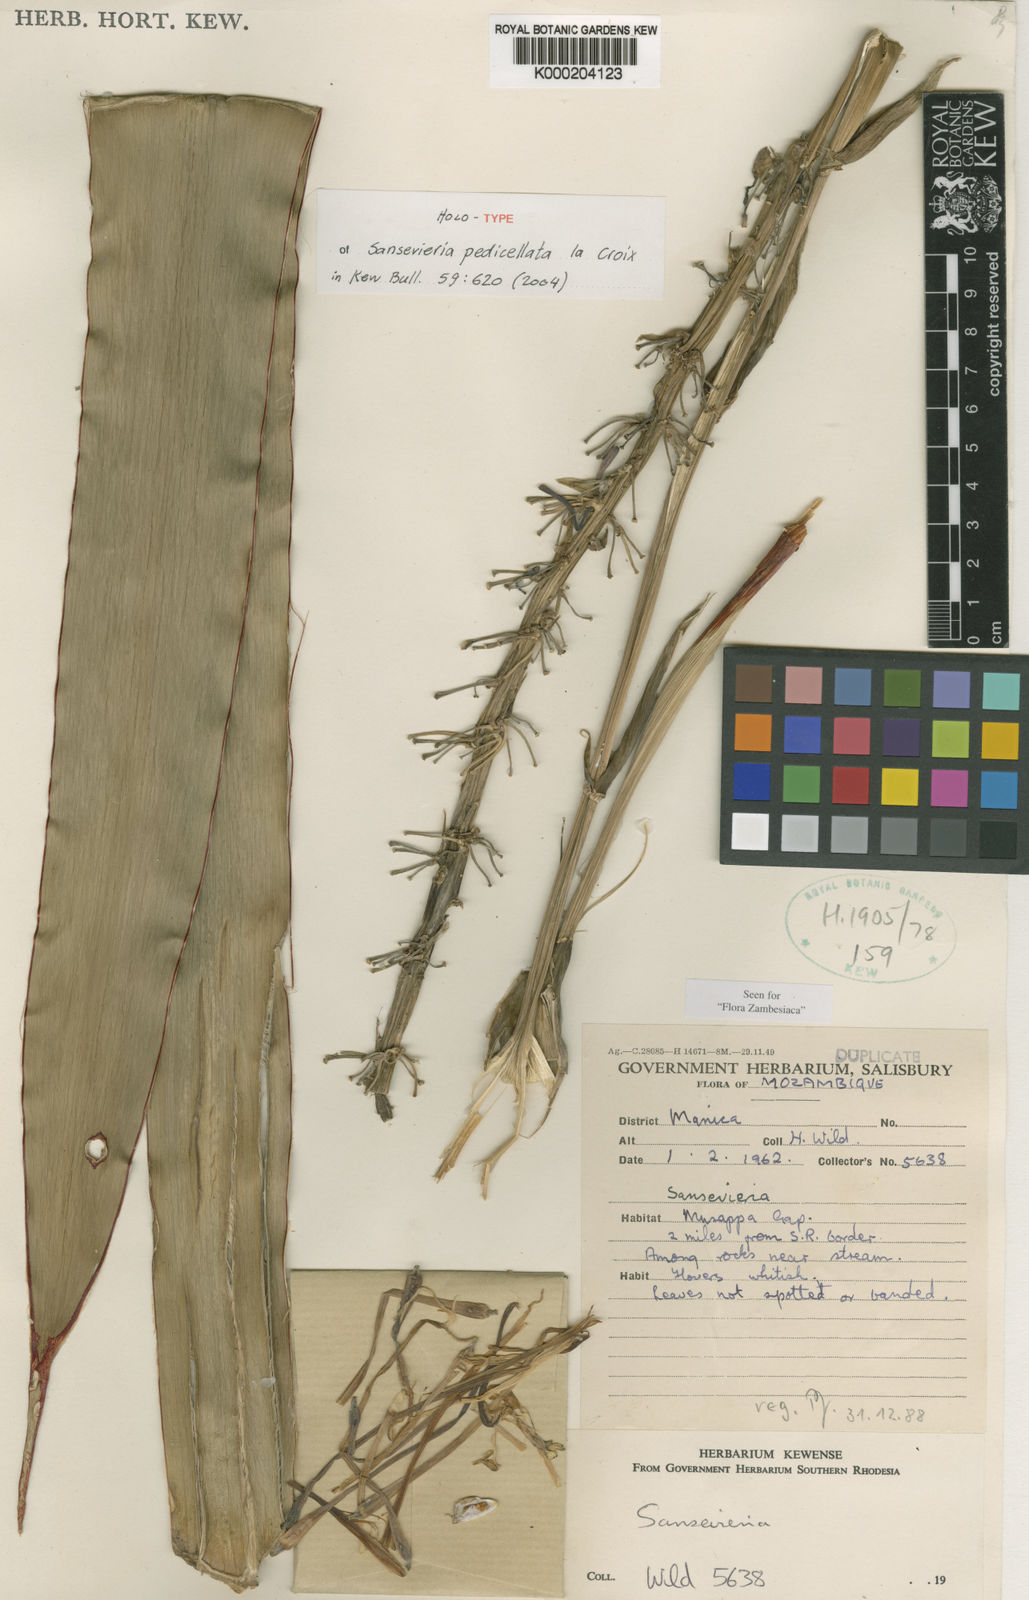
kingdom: Plantae
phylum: Tracheophyta
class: Liliopsida
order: Asparagales
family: Asparagaceae
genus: Dracaena
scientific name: Dracaena pedicellata
